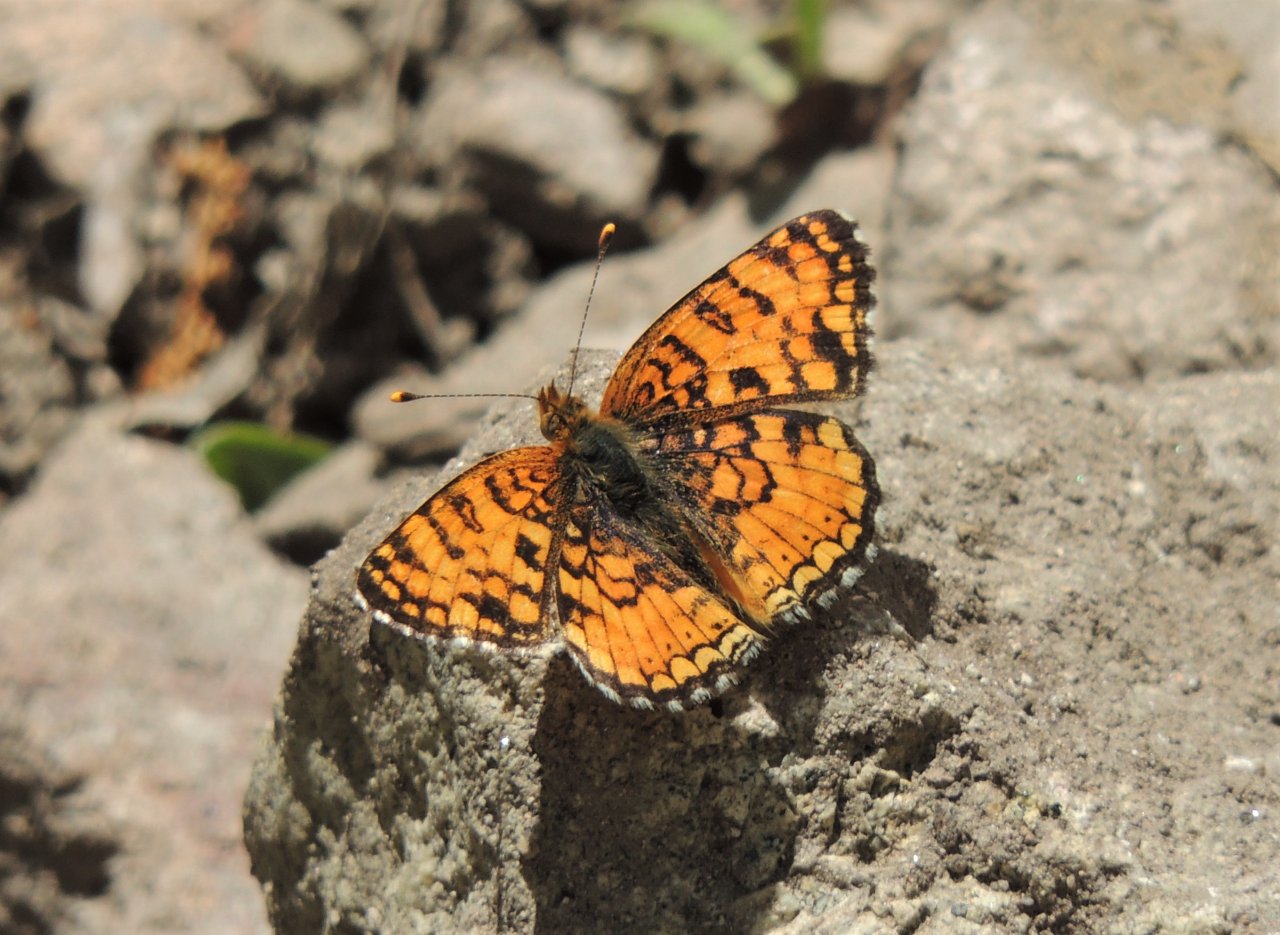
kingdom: Animalia
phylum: Arthropoda
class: Insecta
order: Lepidoptera
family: Nymphalidae
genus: Phyciodes
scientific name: Phyciodes pallida
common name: Pale Crescent
